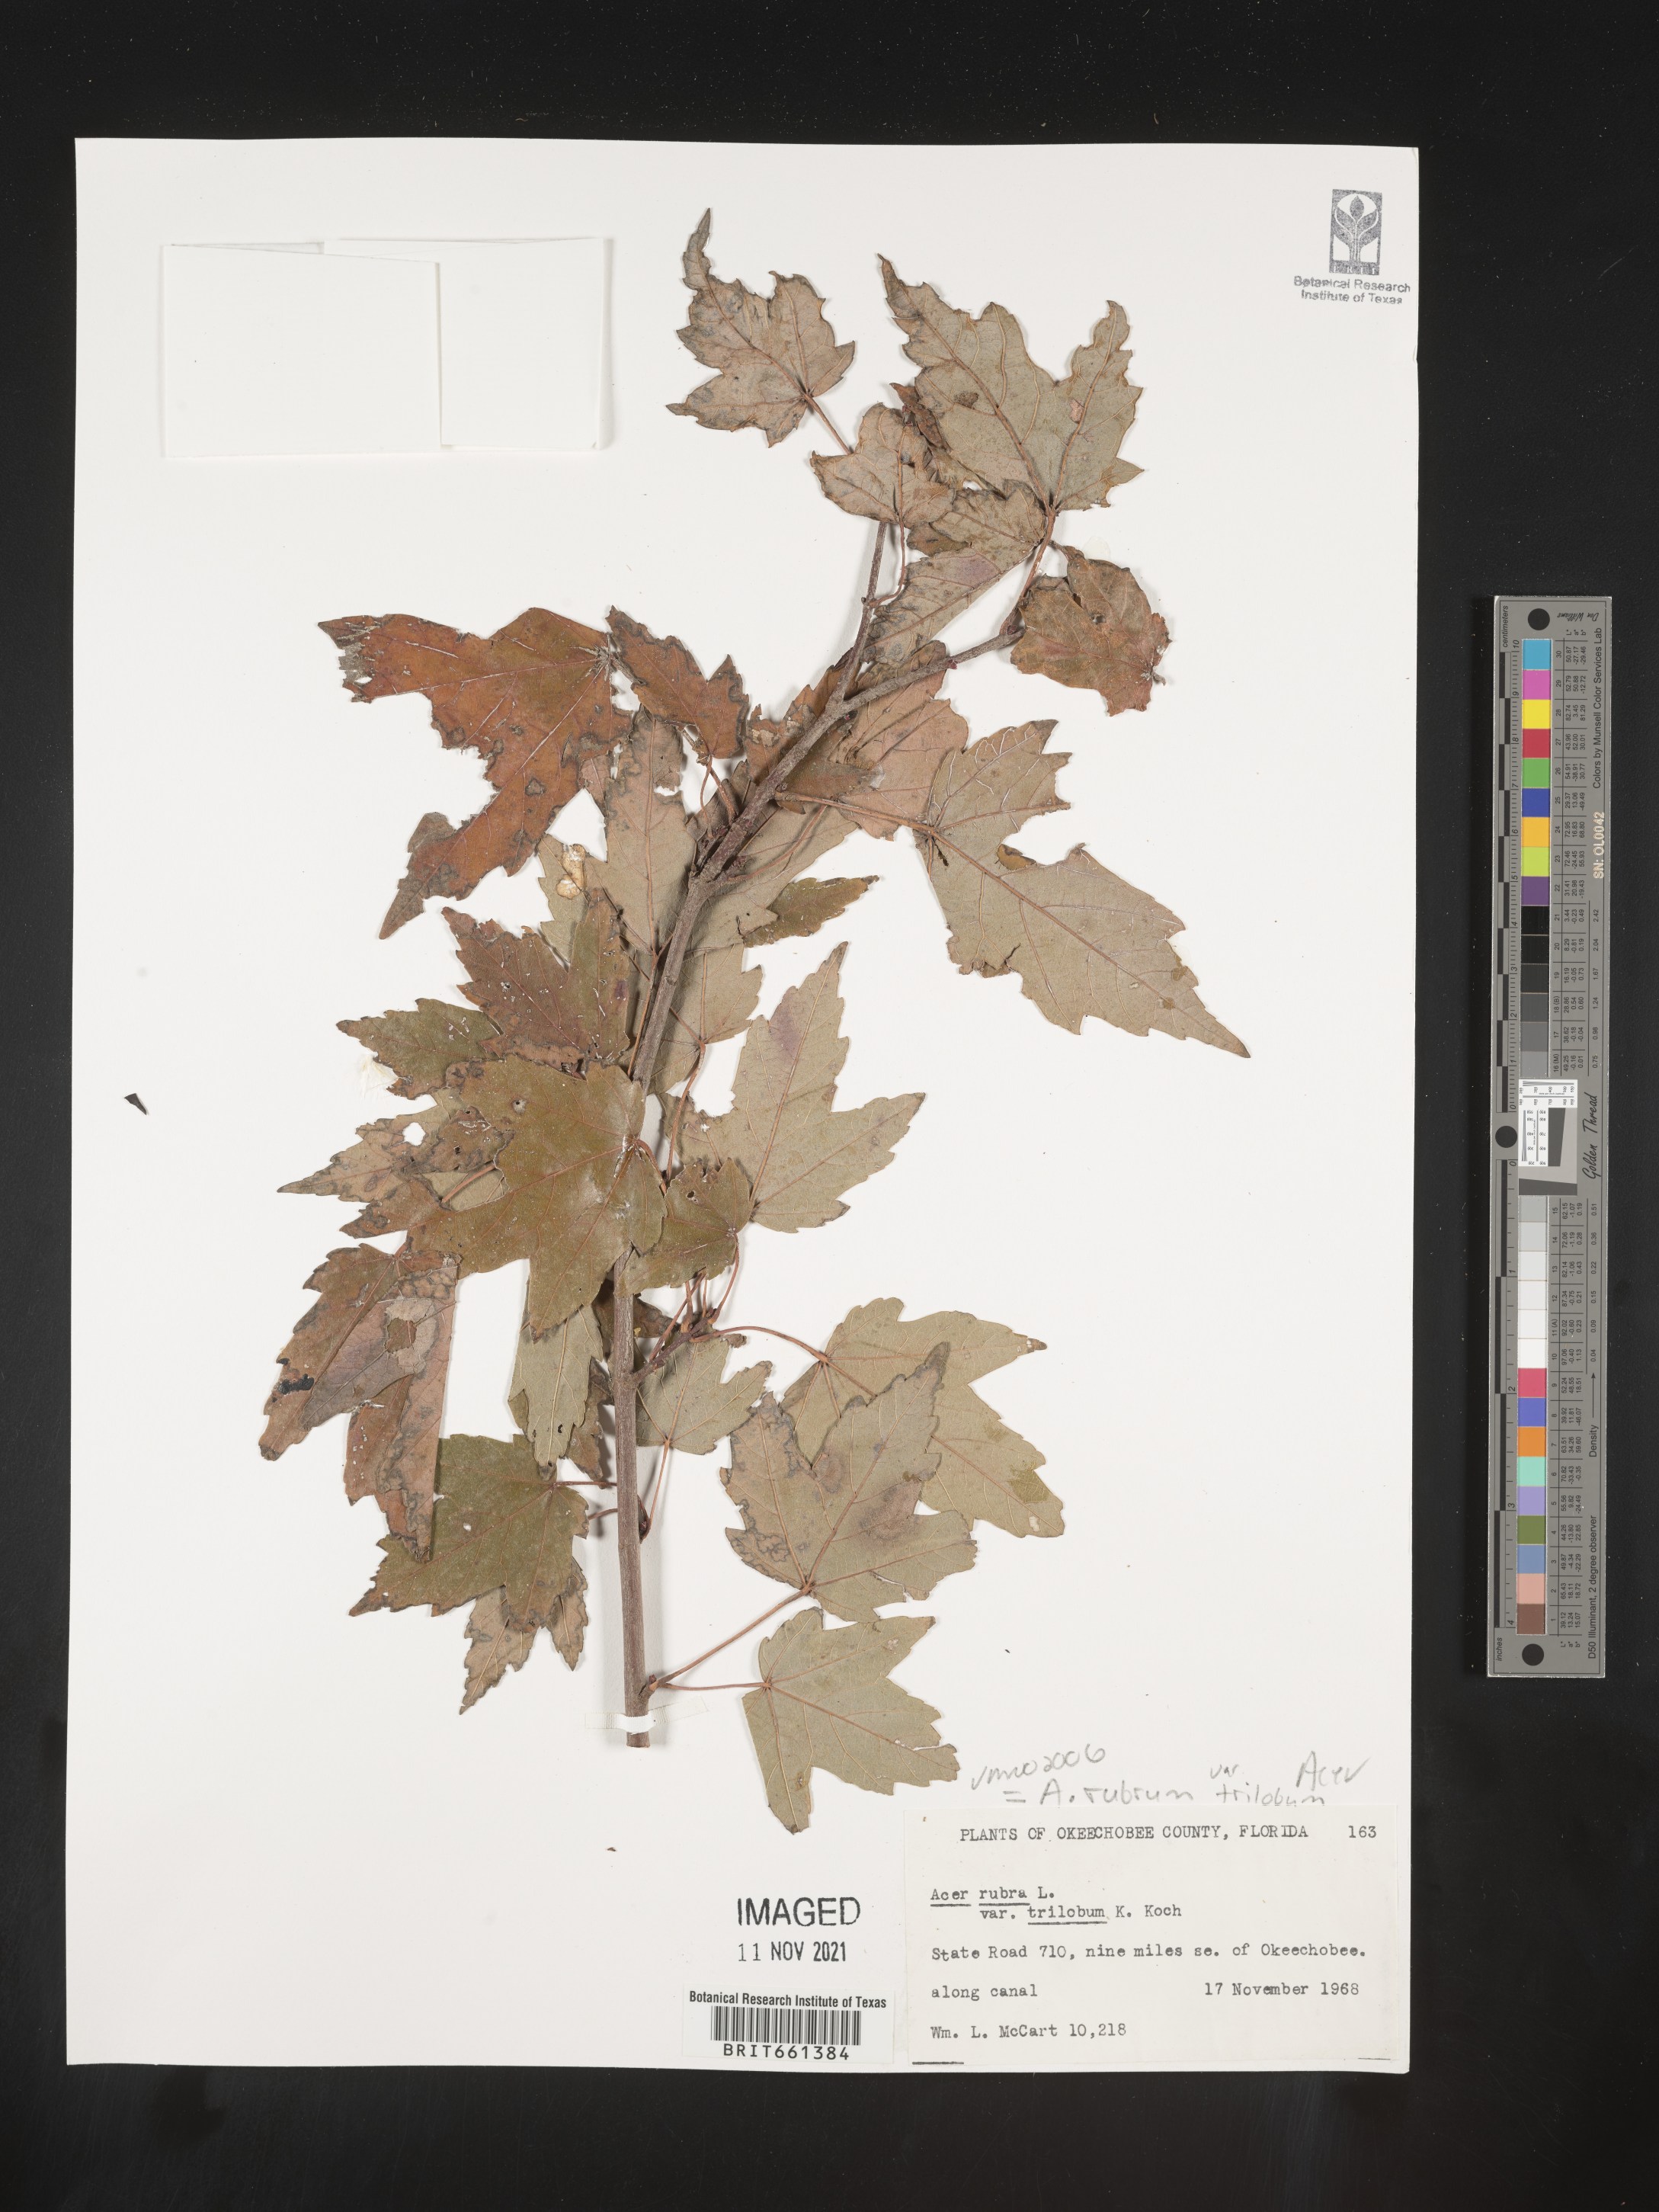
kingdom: Plantae
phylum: Tracheophyta
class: Magnoliopsida
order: Sapindales
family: Sapindaceae
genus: Acer
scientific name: Acer rubrum
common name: Red maple
